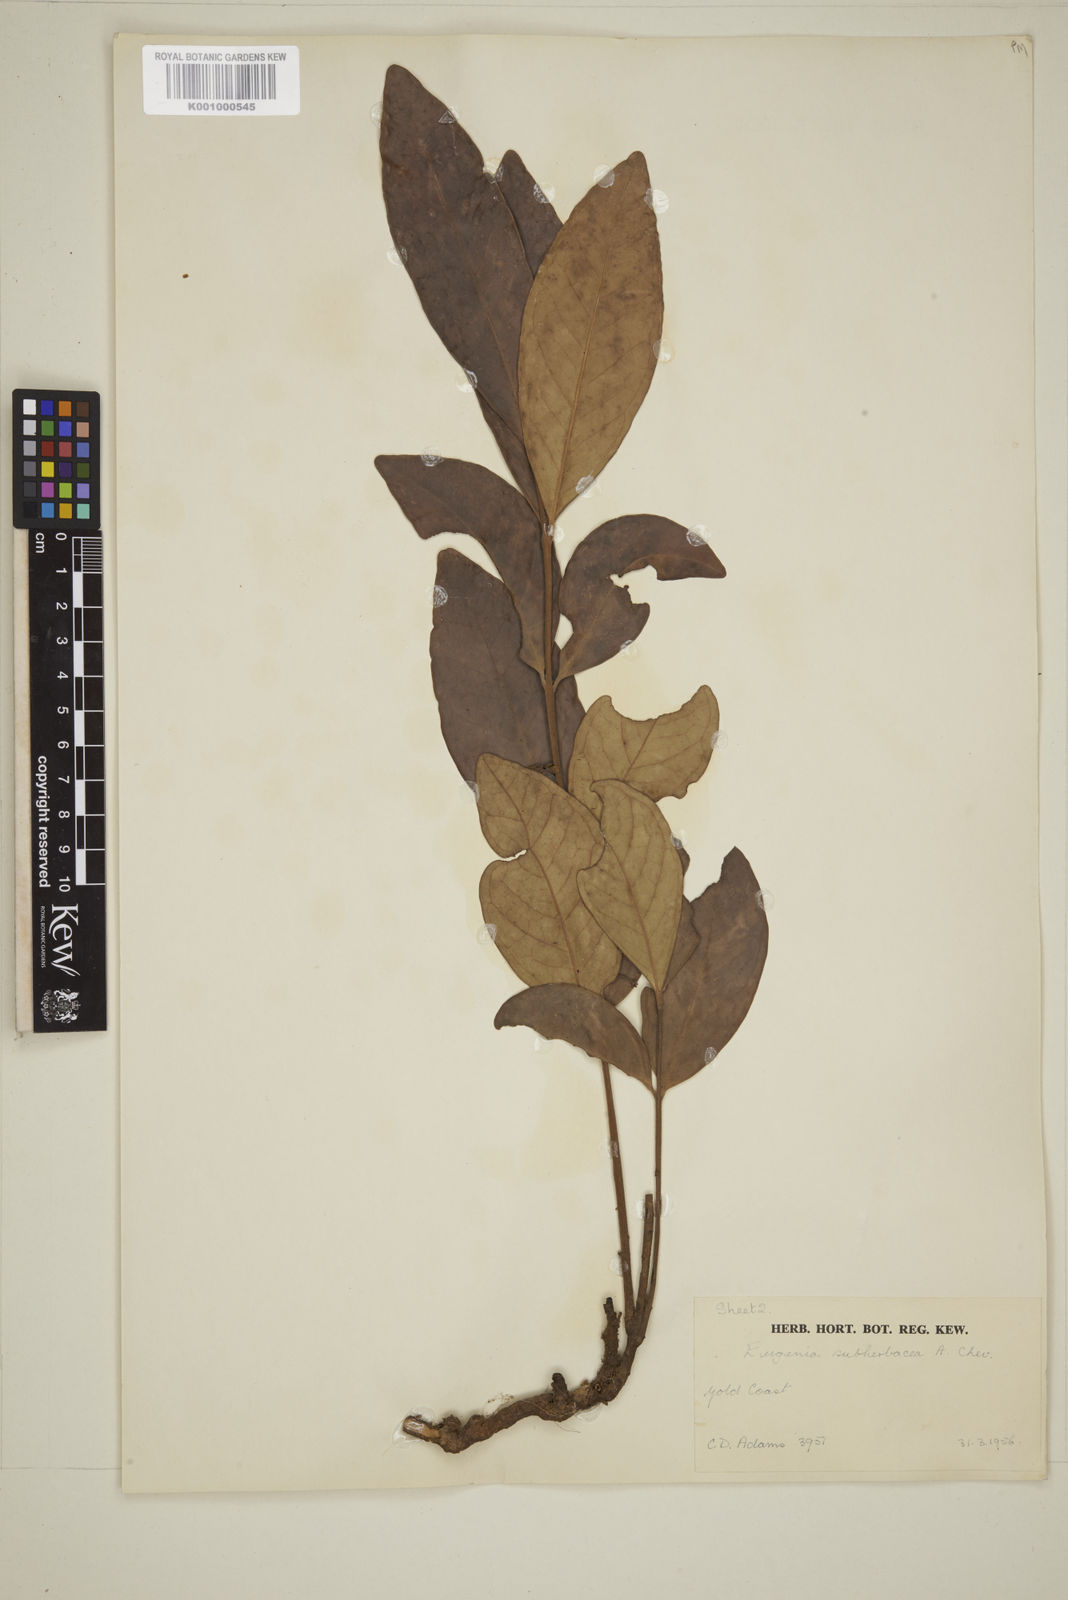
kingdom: Plantae
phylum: Tracheophyta
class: Magnoliopsida
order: Myrtales
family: Myrtaceae
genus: Eugenia
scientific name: Eugenia subherbacea
